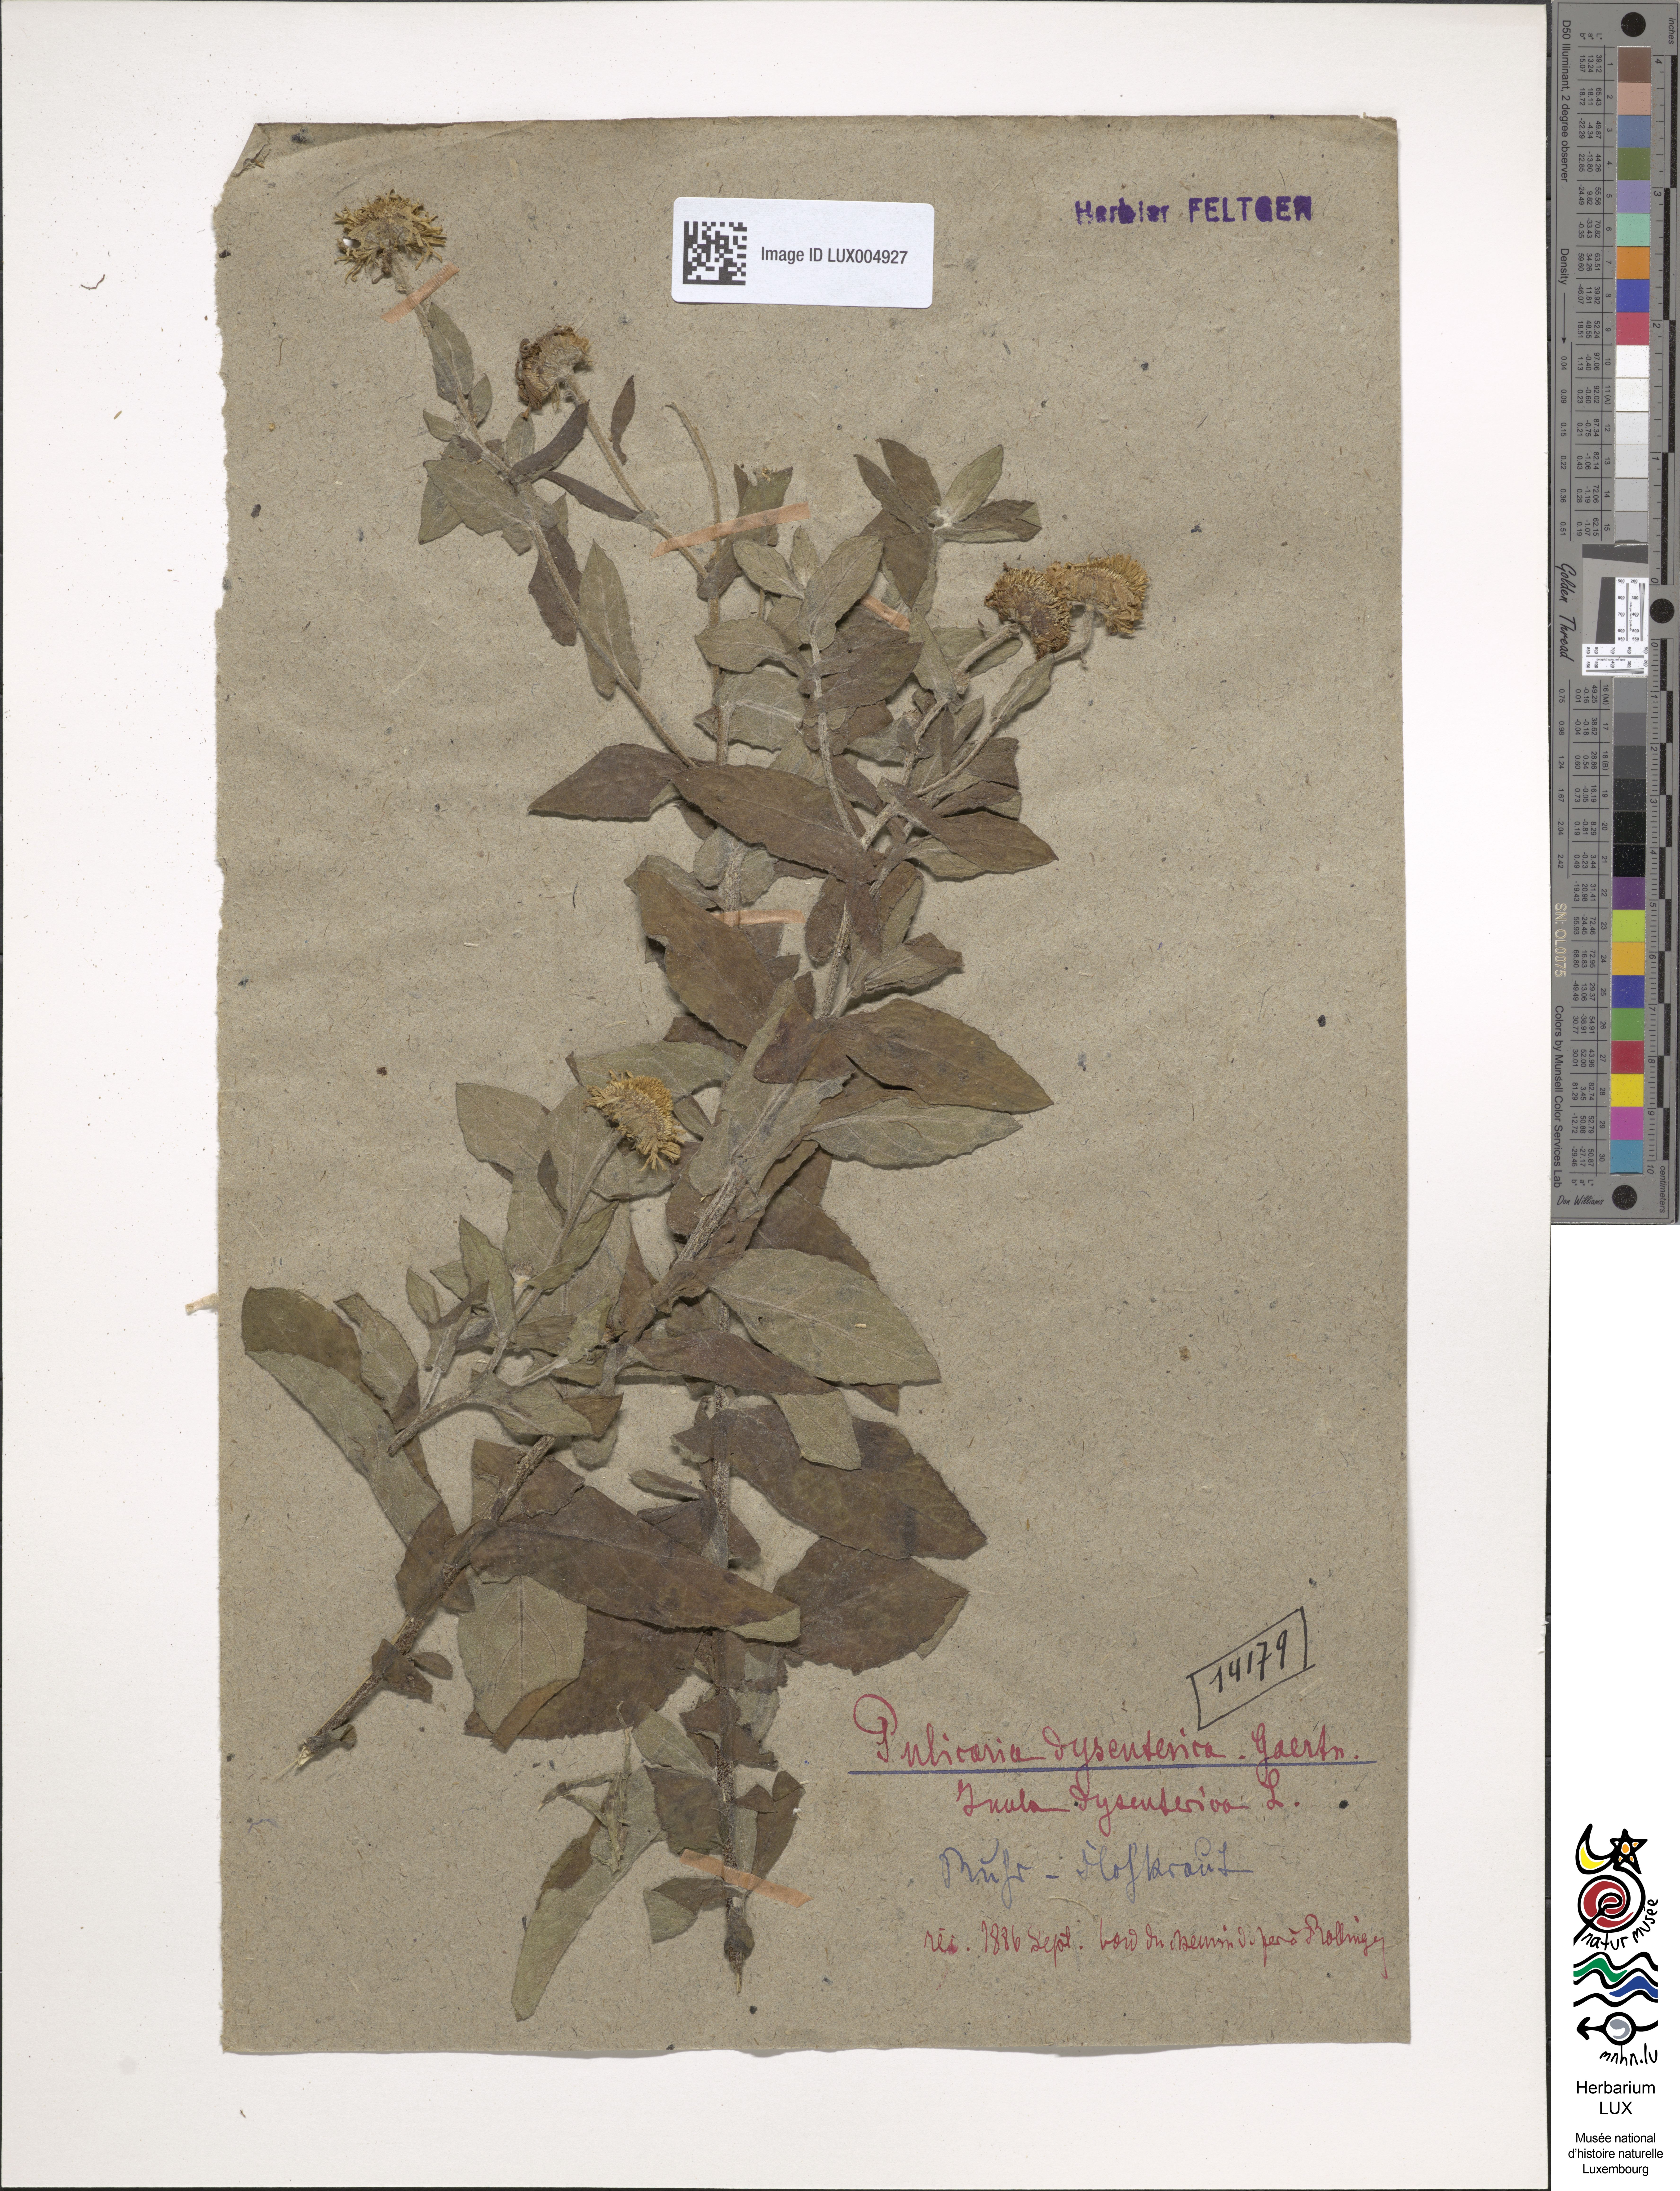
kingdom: Plantae
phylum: Tracheophyta
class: Magnoliopsida
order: Asterales
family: Asteraceae
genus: Pulicaria
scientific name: Pulicaria dysenterica
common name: Common fleabane
